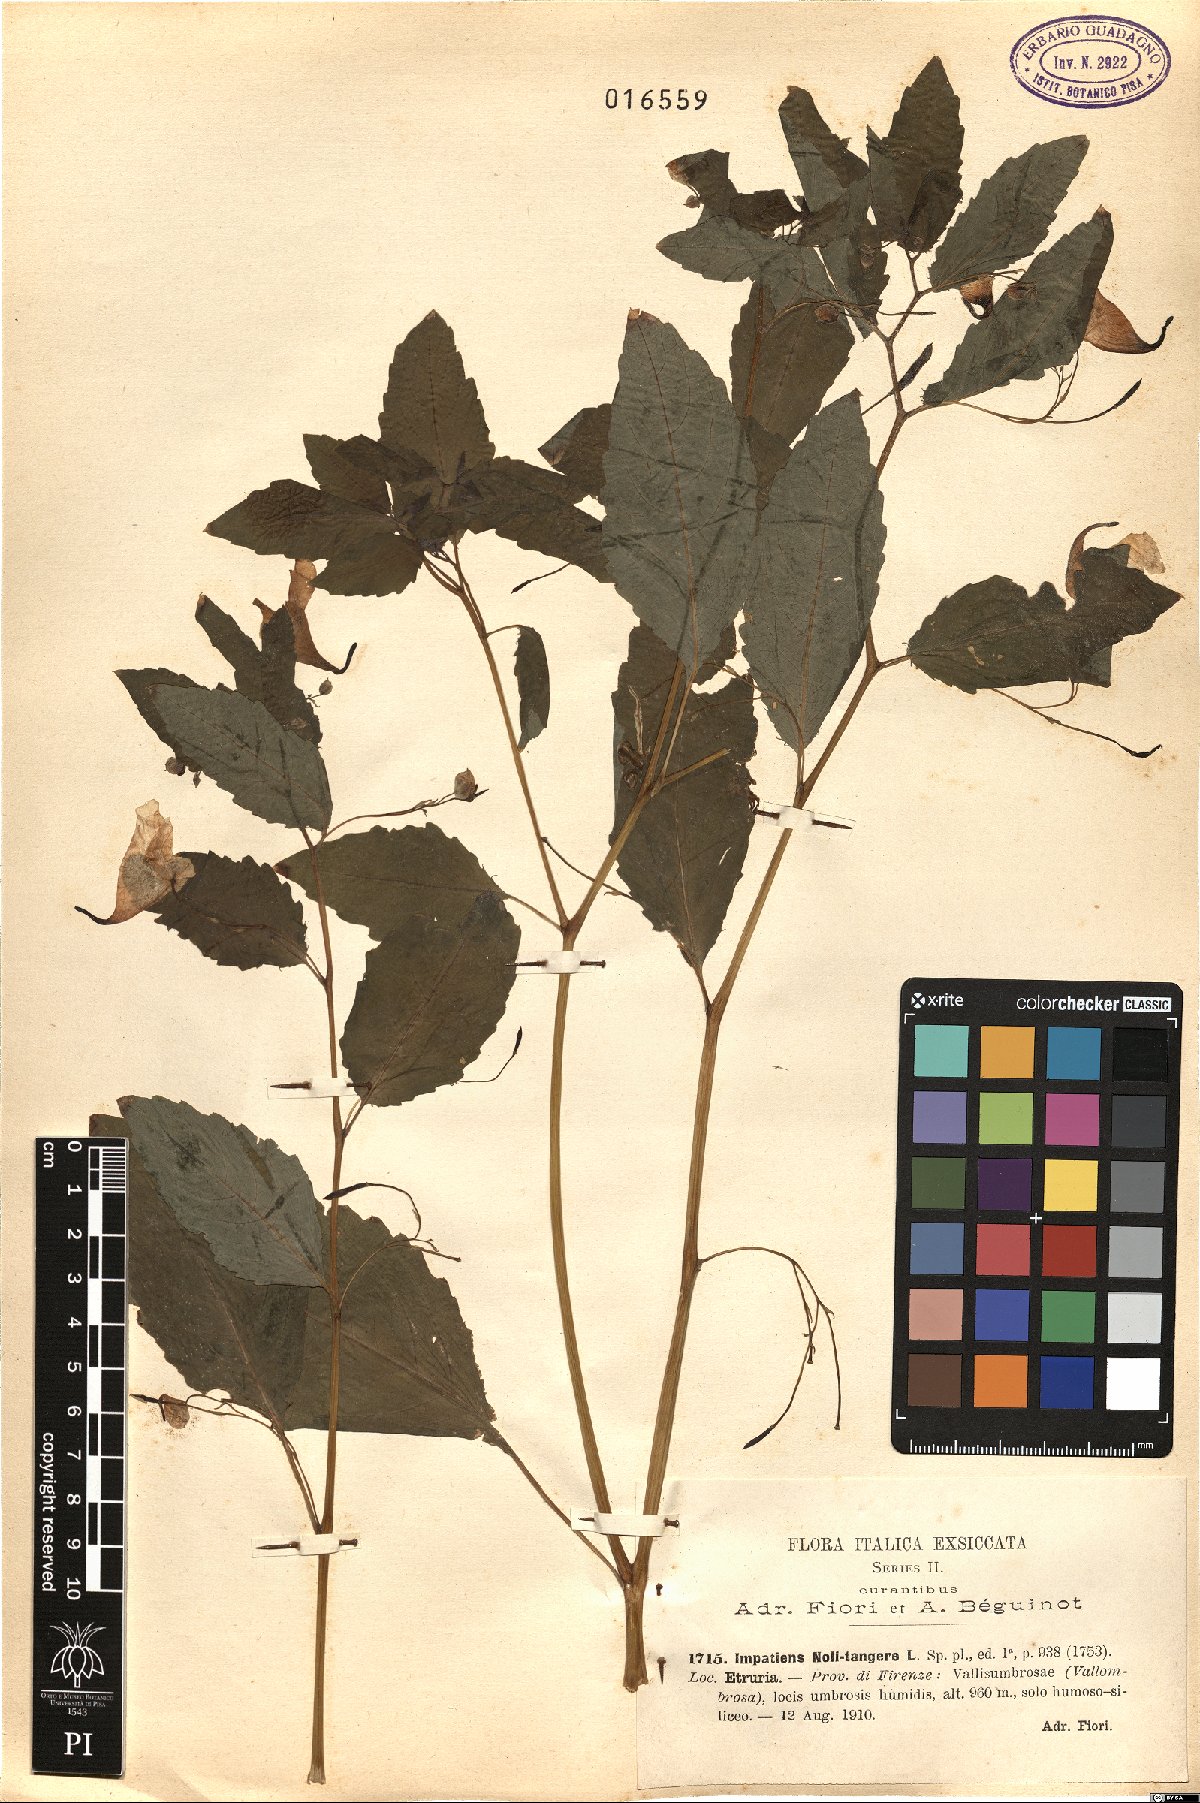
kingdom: Plantae
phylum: Tracheophyta
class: Magnoliopsida
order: Ericales
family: Balsaminaceae
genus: Impatiens
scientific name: Impatiens noli-tangere
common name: Touch-me-not balsam
